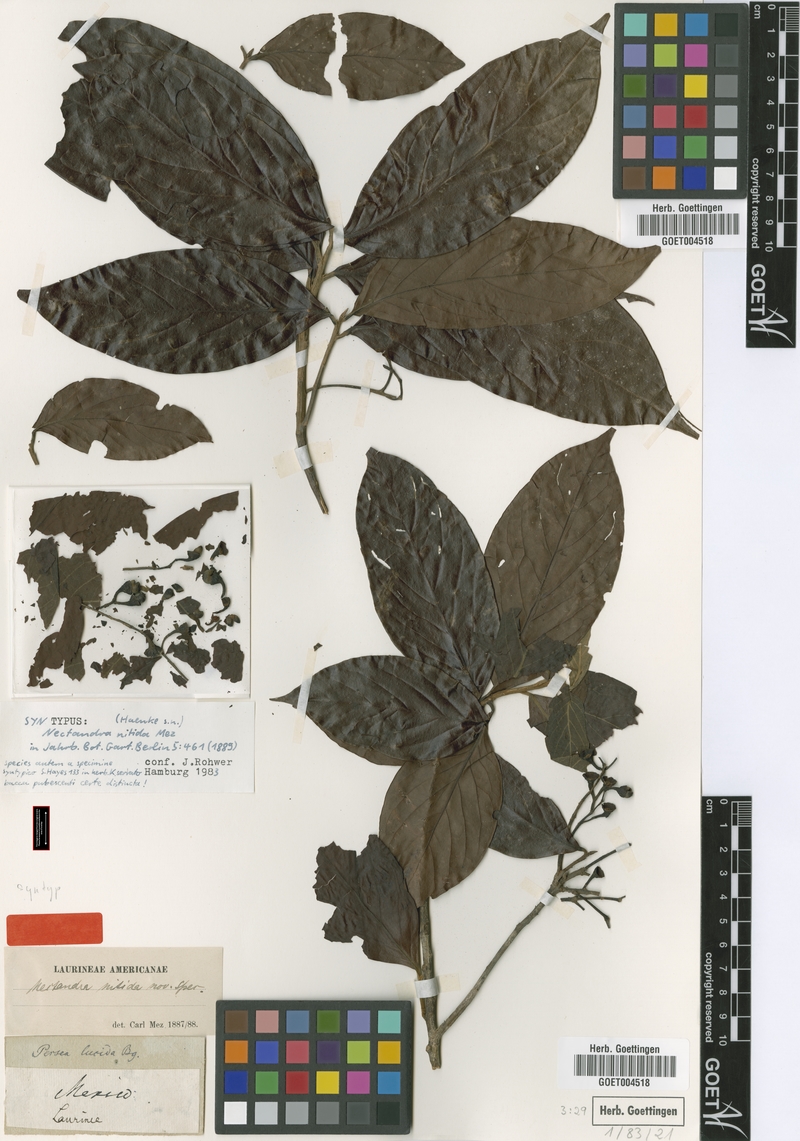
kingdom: Plantae
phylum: Tracheophyta
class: Magnoliopsida
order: Laurales
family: Lauraceae
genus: Damburneya
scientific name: Damburneya nitida
